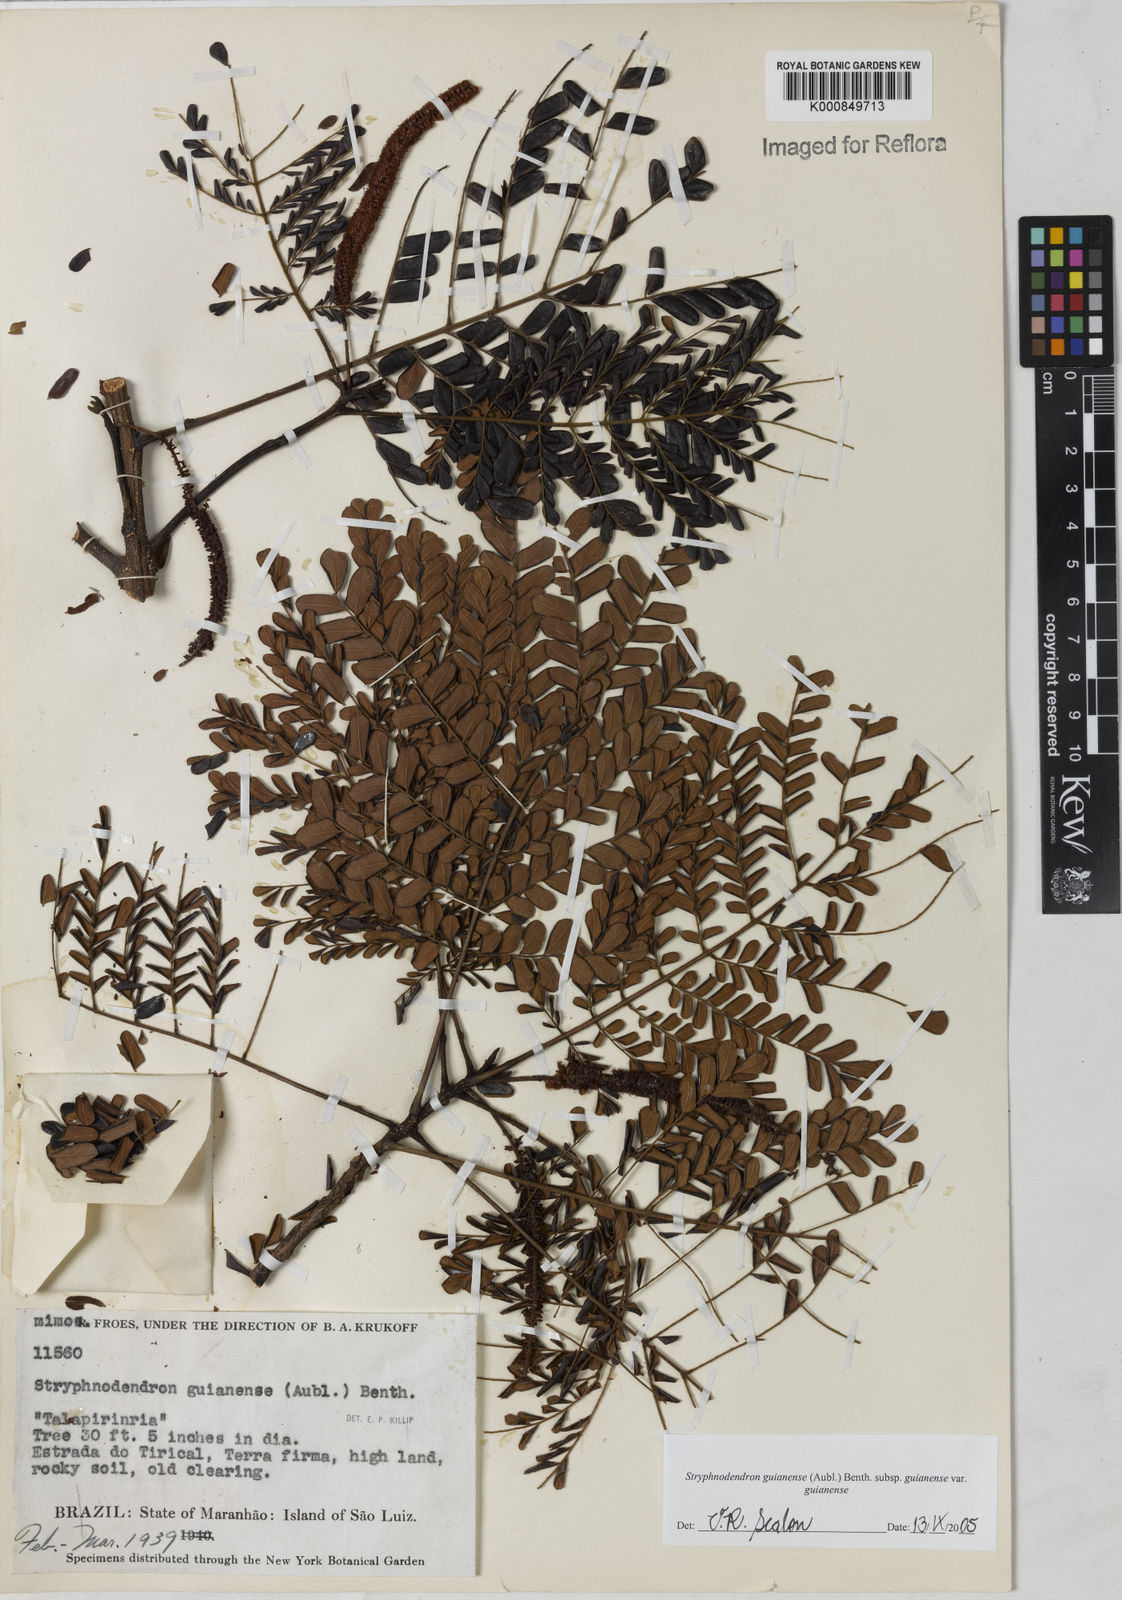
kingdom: Plantae
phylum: Tracheophyta
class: Magnoliopsida
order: Fabales
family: Fabaceae
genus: Stryphnodendron
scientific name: Stryphnodendron guianense
